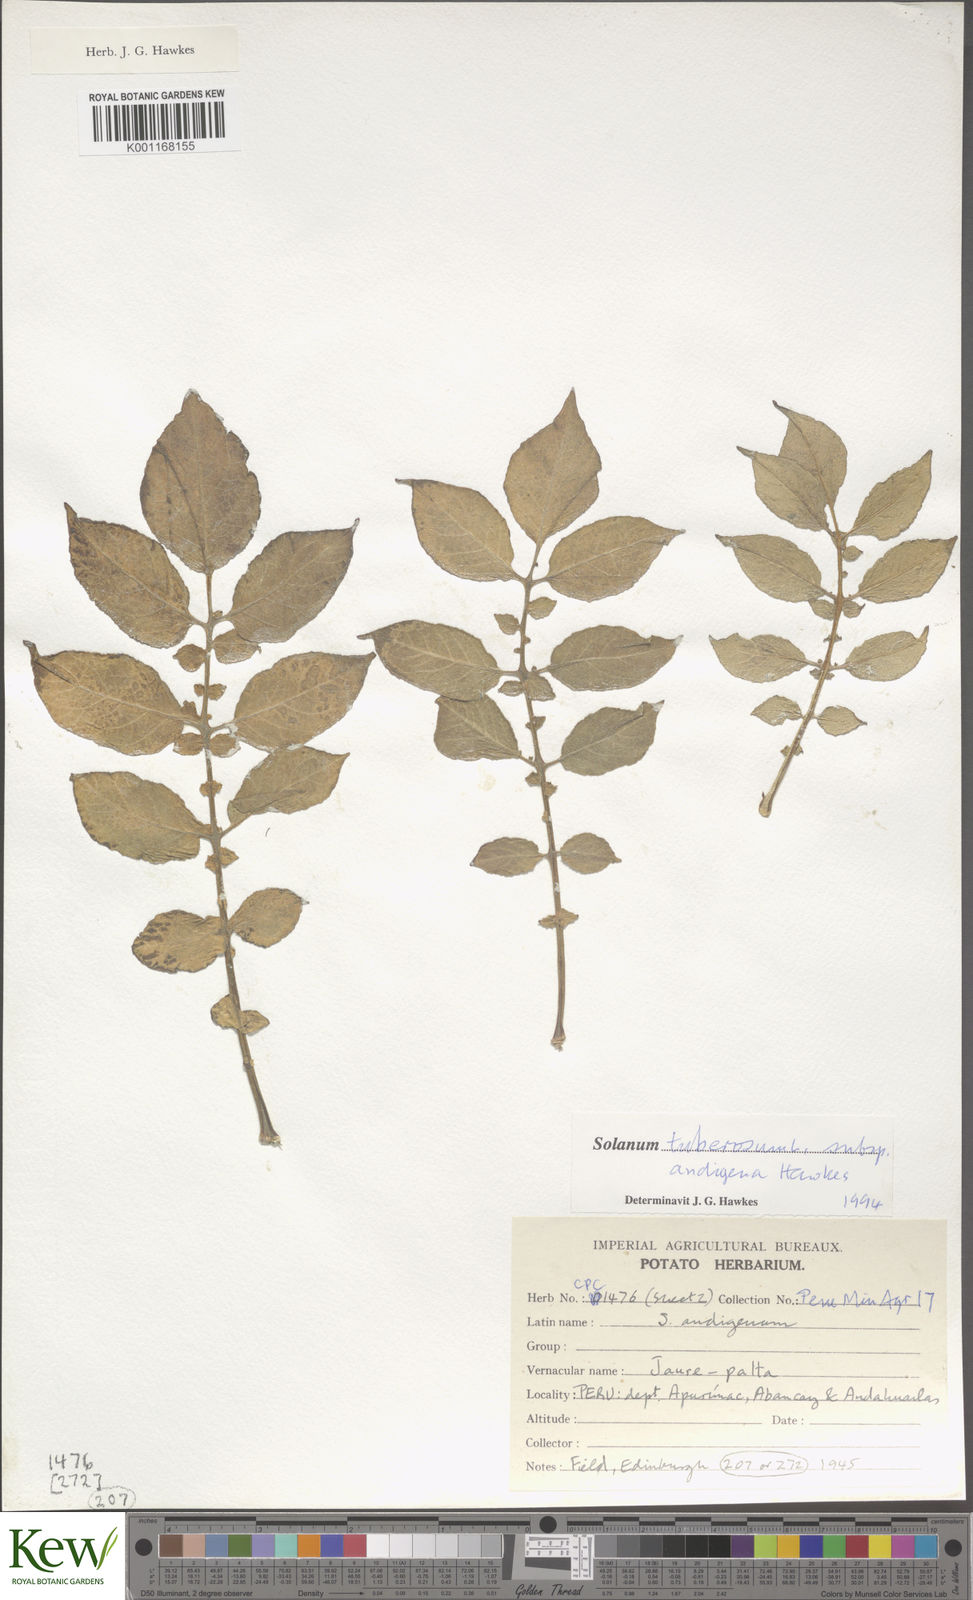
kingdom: Plantae
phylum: Tracheophyta
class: Magnoliopsida
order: Solanales
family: Solanaceae
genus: Solanum
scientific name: Solanum tuberosum
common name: Potato
